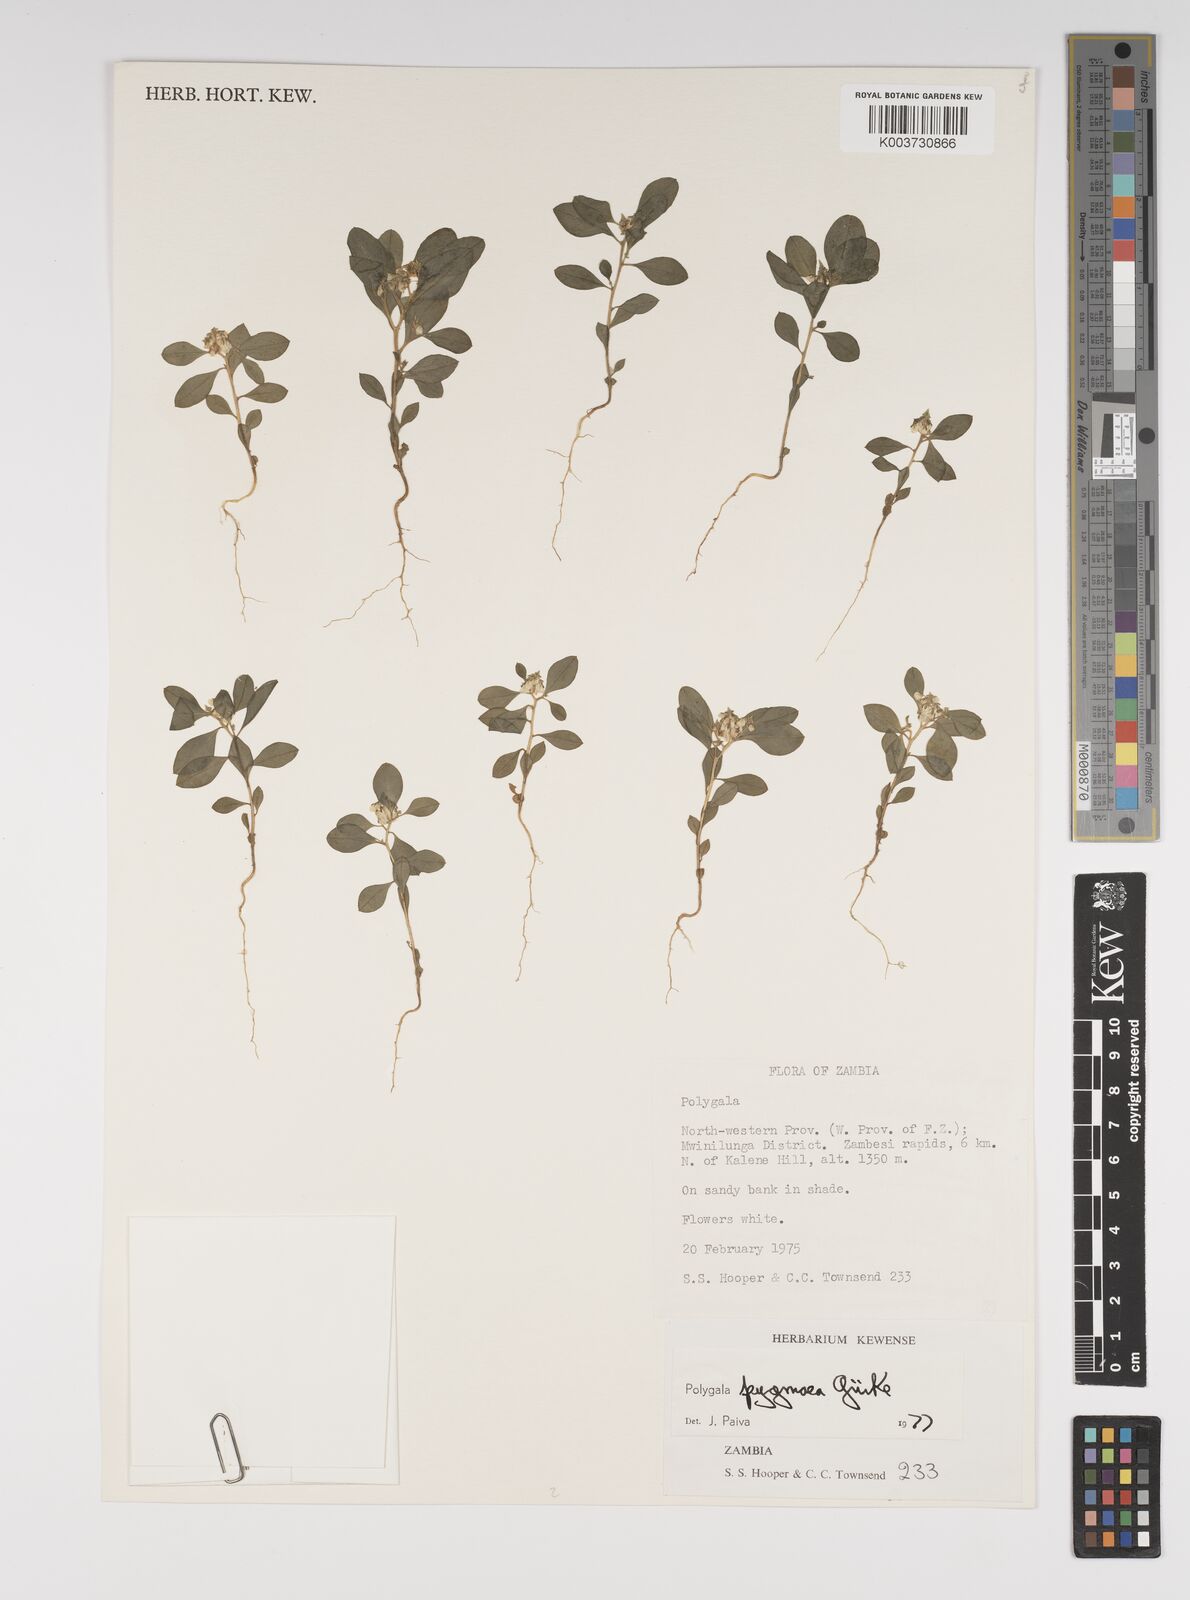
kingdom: Plantae
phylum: Tracheophyta
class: Magnoliopsida
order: Fabales
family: Polygalaceae
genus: Polygala
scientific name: Polygala welwitschii
